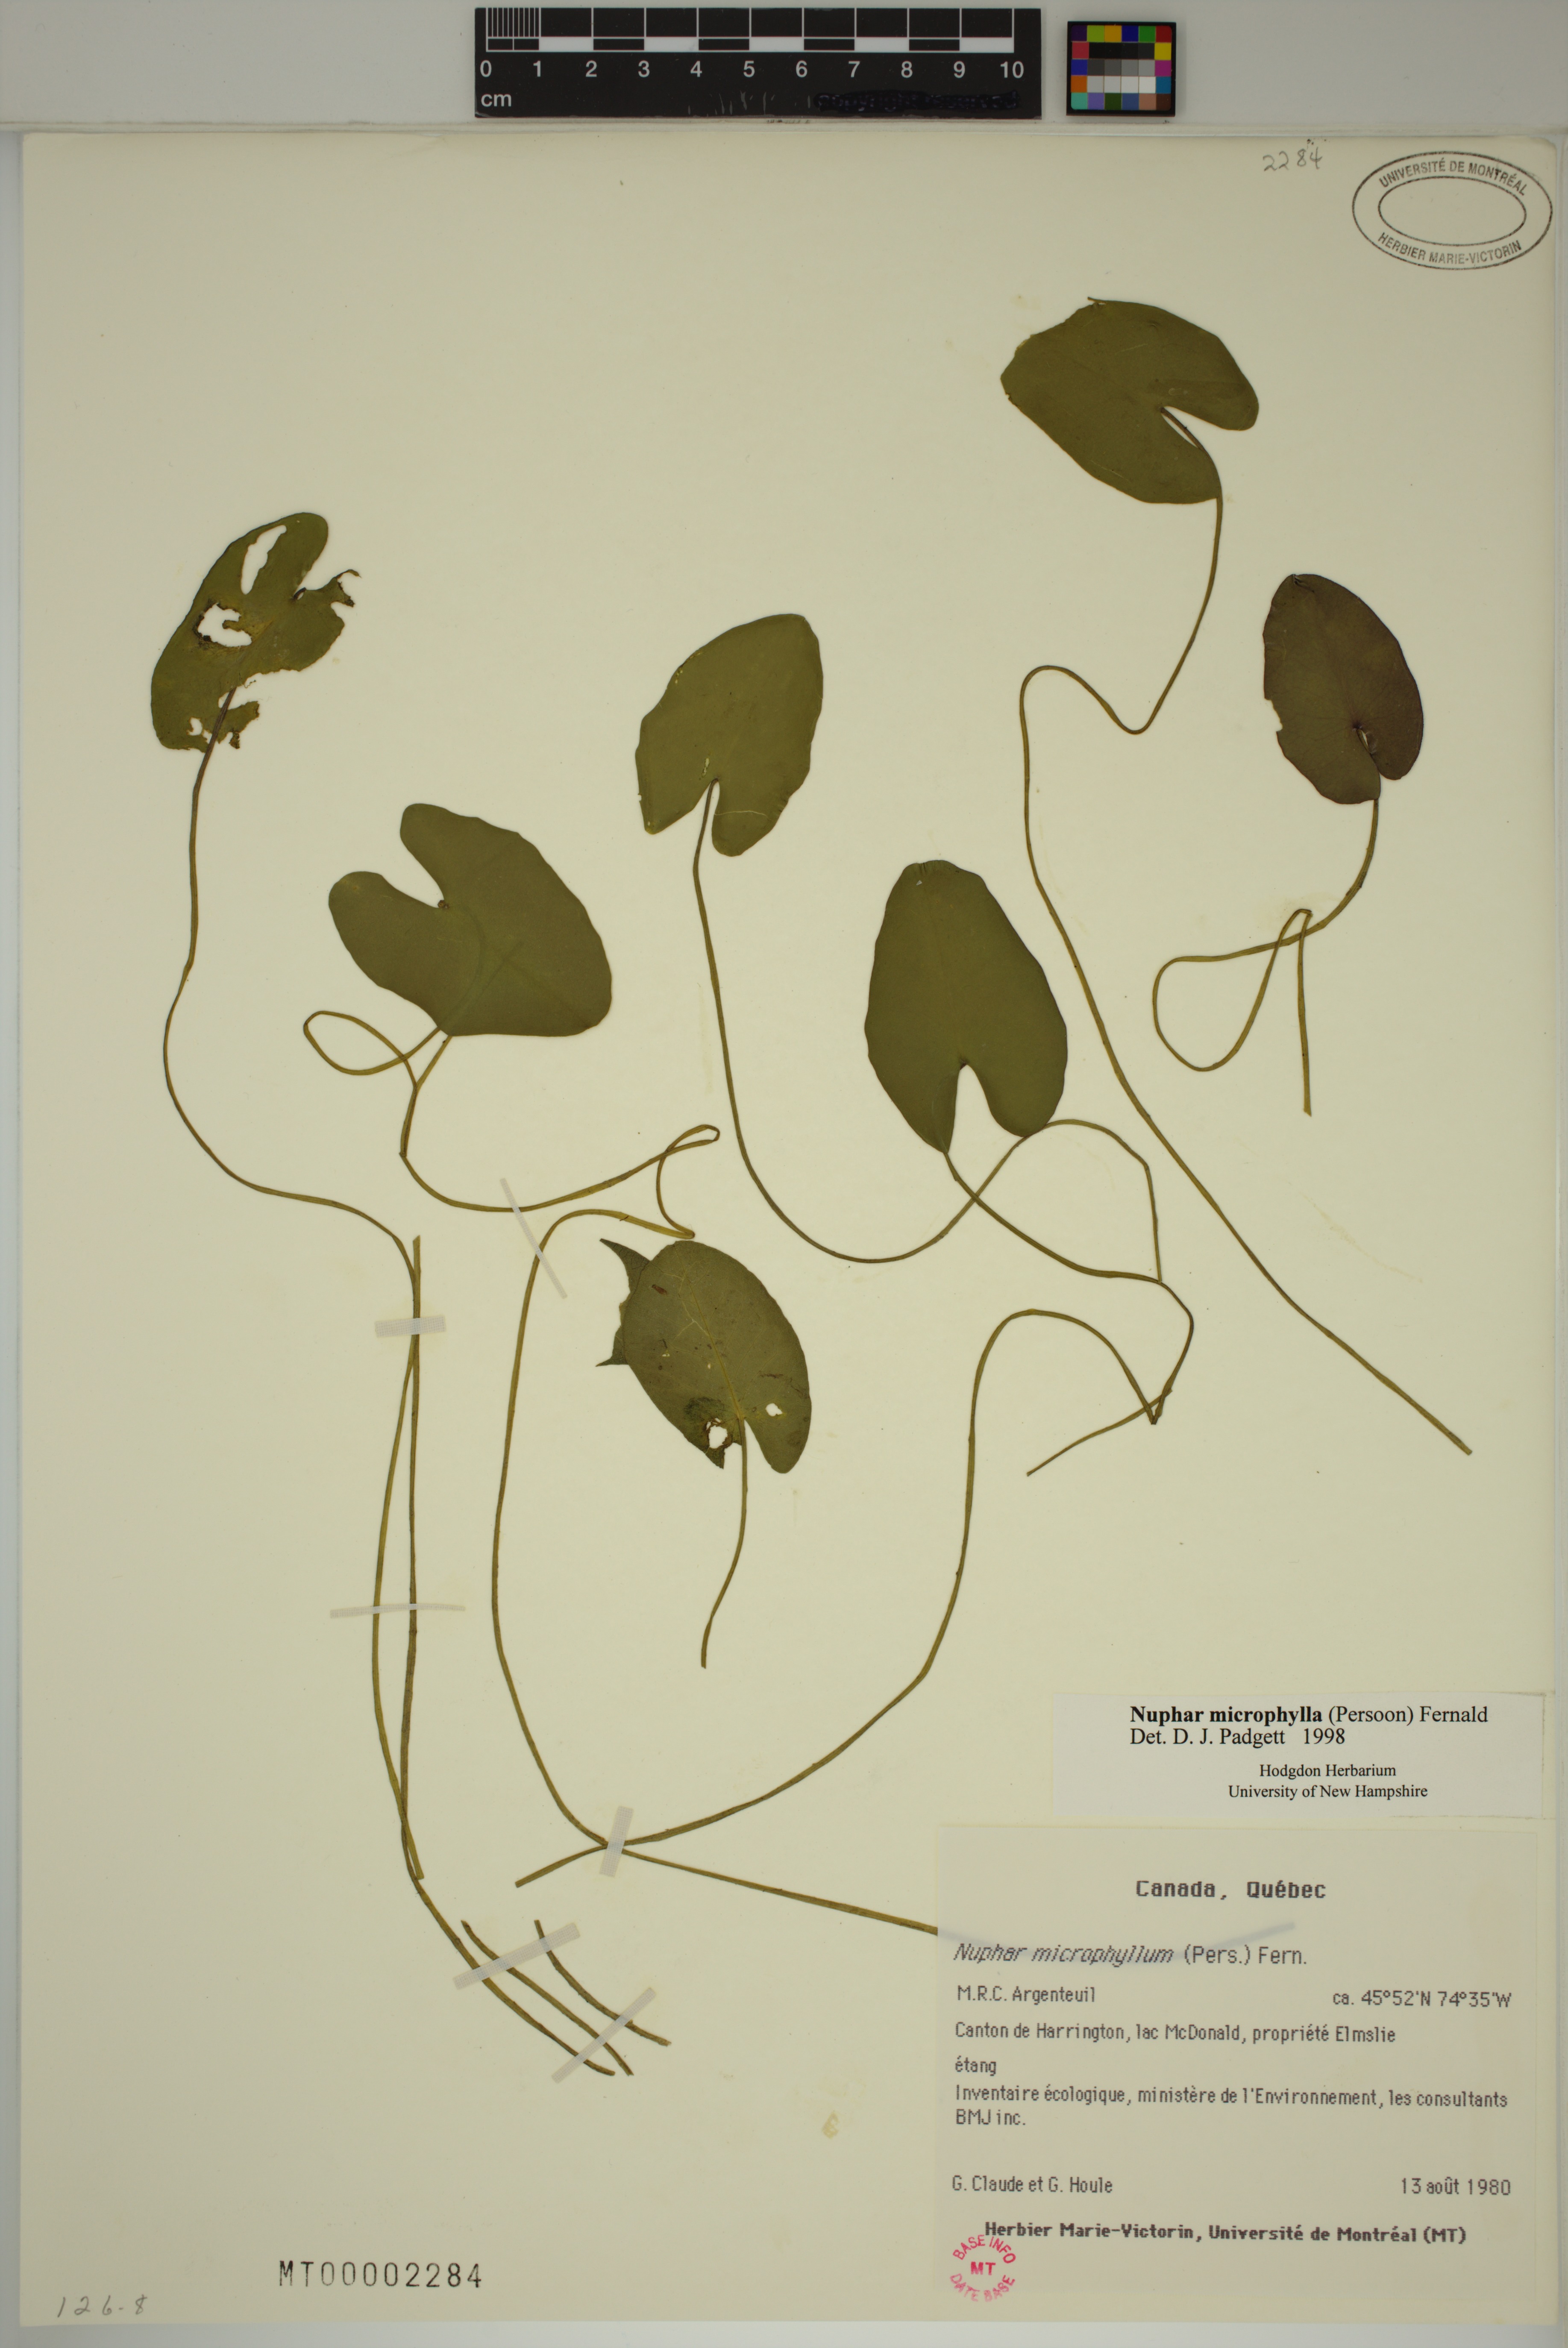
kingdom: Plantae
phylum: Tracheophyta
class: Magnoliopsida
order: Nymphaeales
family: Nymphaeaceae
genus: Nuphar
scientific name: Nuphar microphylla
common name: Small pond-lily
